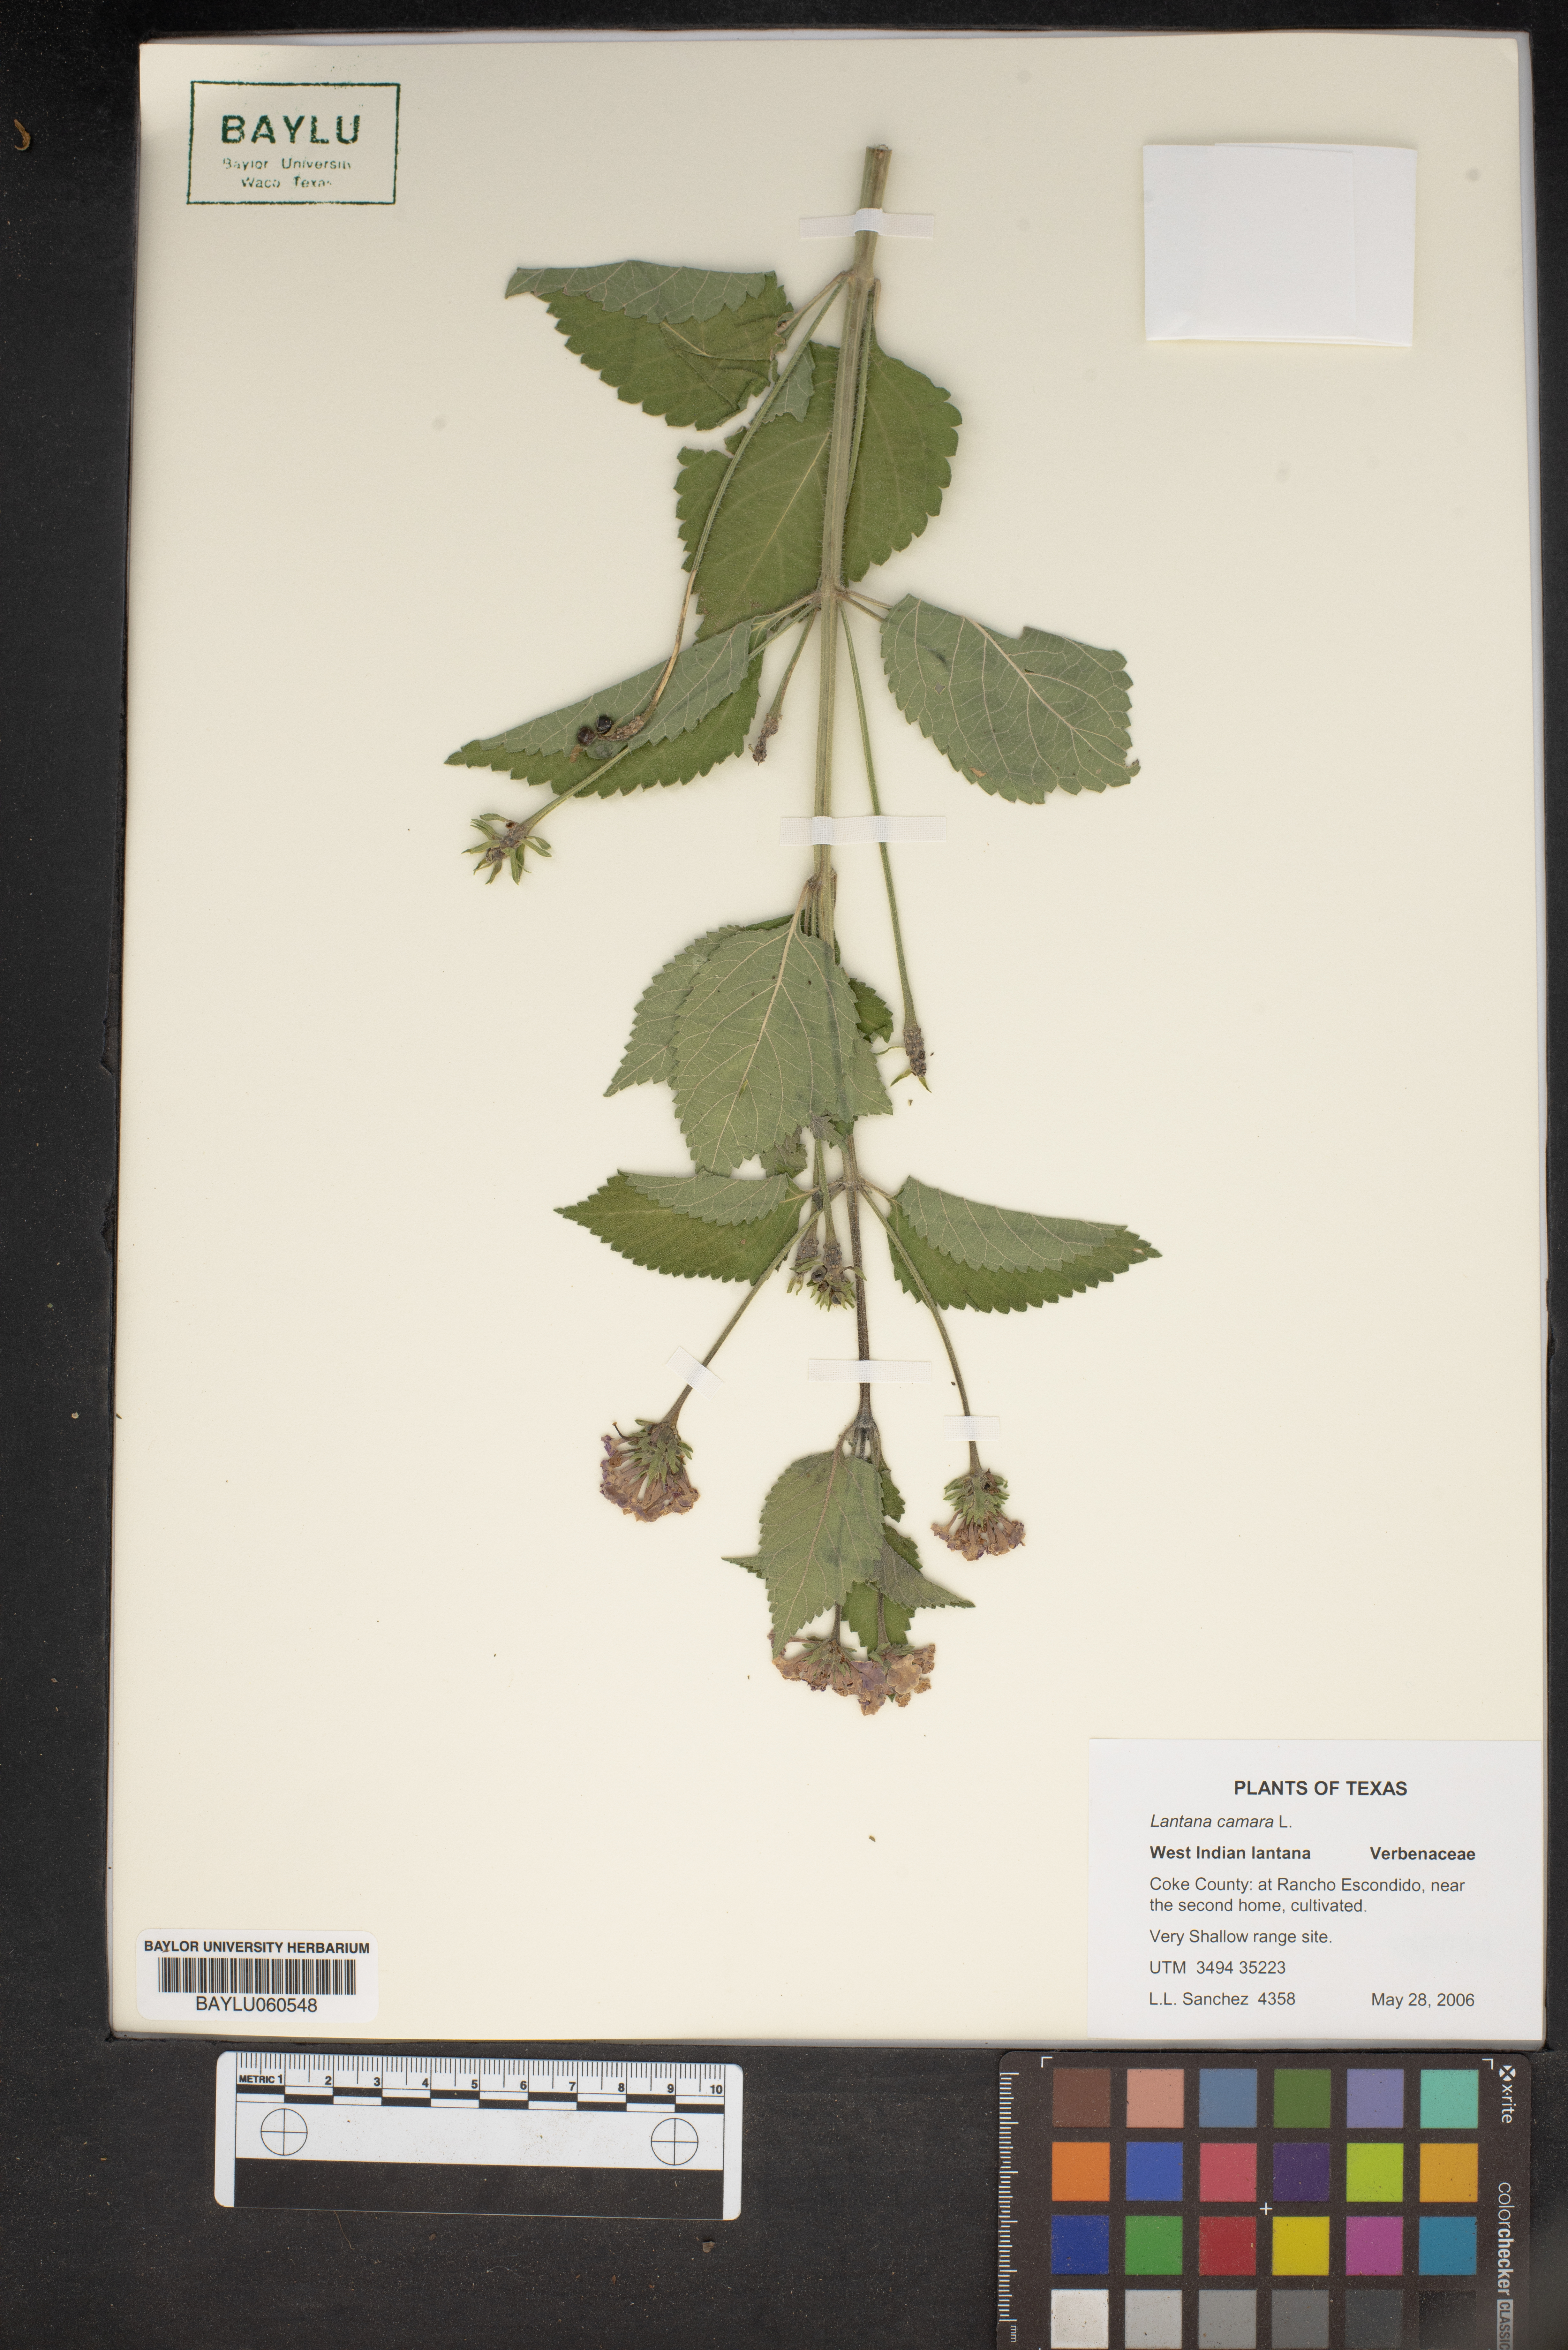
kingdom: Plantae
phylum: Tracheophyta
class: Magnoliopsida
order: Lamiales
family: Verbenaceae
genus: Lantana
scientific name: Lantana camara
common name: Lantana
